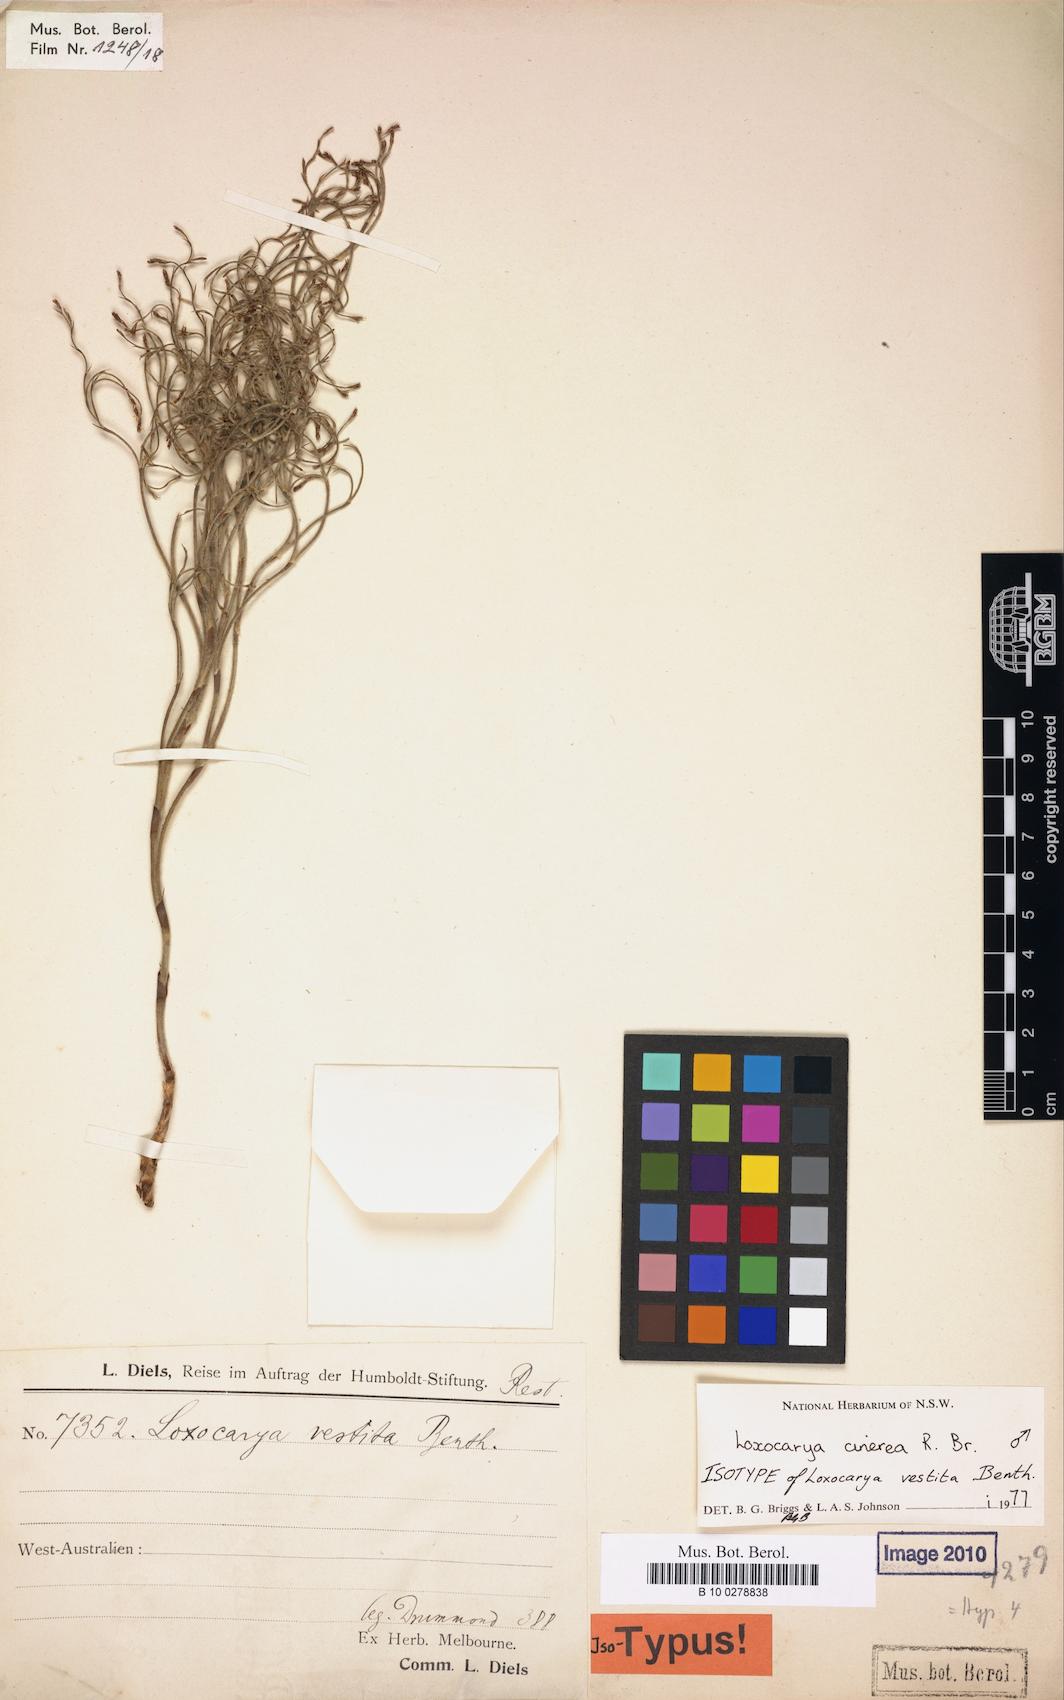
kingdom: Plantae
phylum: Tracheophyta
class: Liliopsida
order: Poales
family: Restionaceae
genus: Loxocarya
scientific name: Loxocarya cinerea
